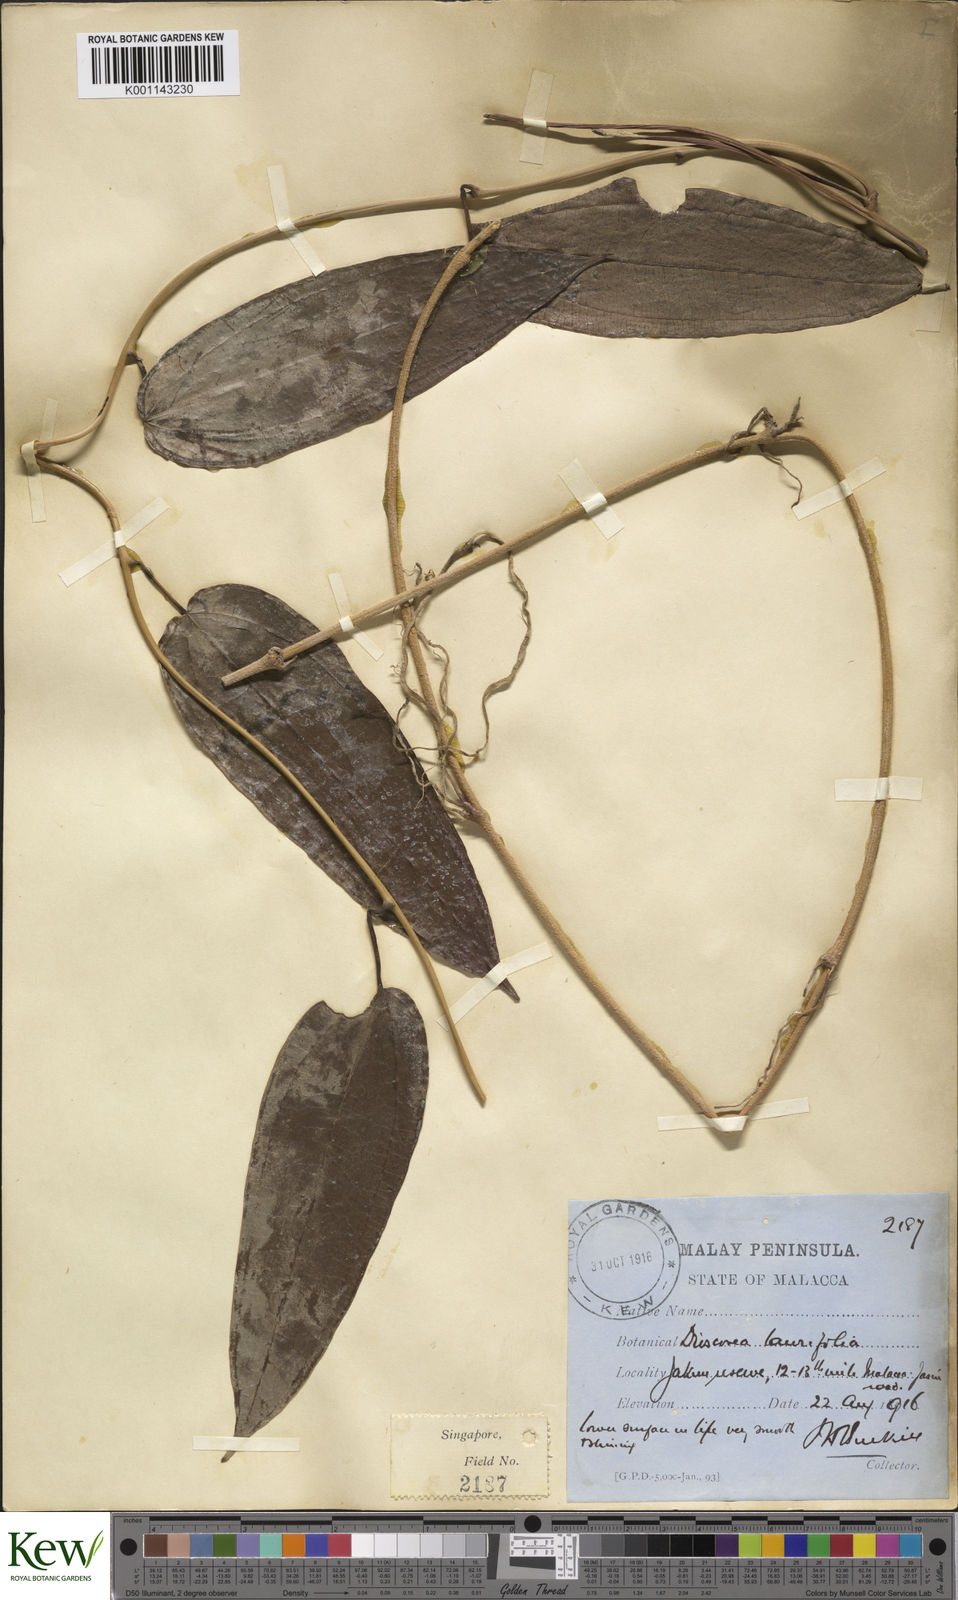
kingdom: Plantae
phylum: Tracheophyta
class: Liliopsida
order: Dioscoreales
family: Dioscoreaceae
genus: Dioscorea
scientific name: Dioscorea laurifolia
